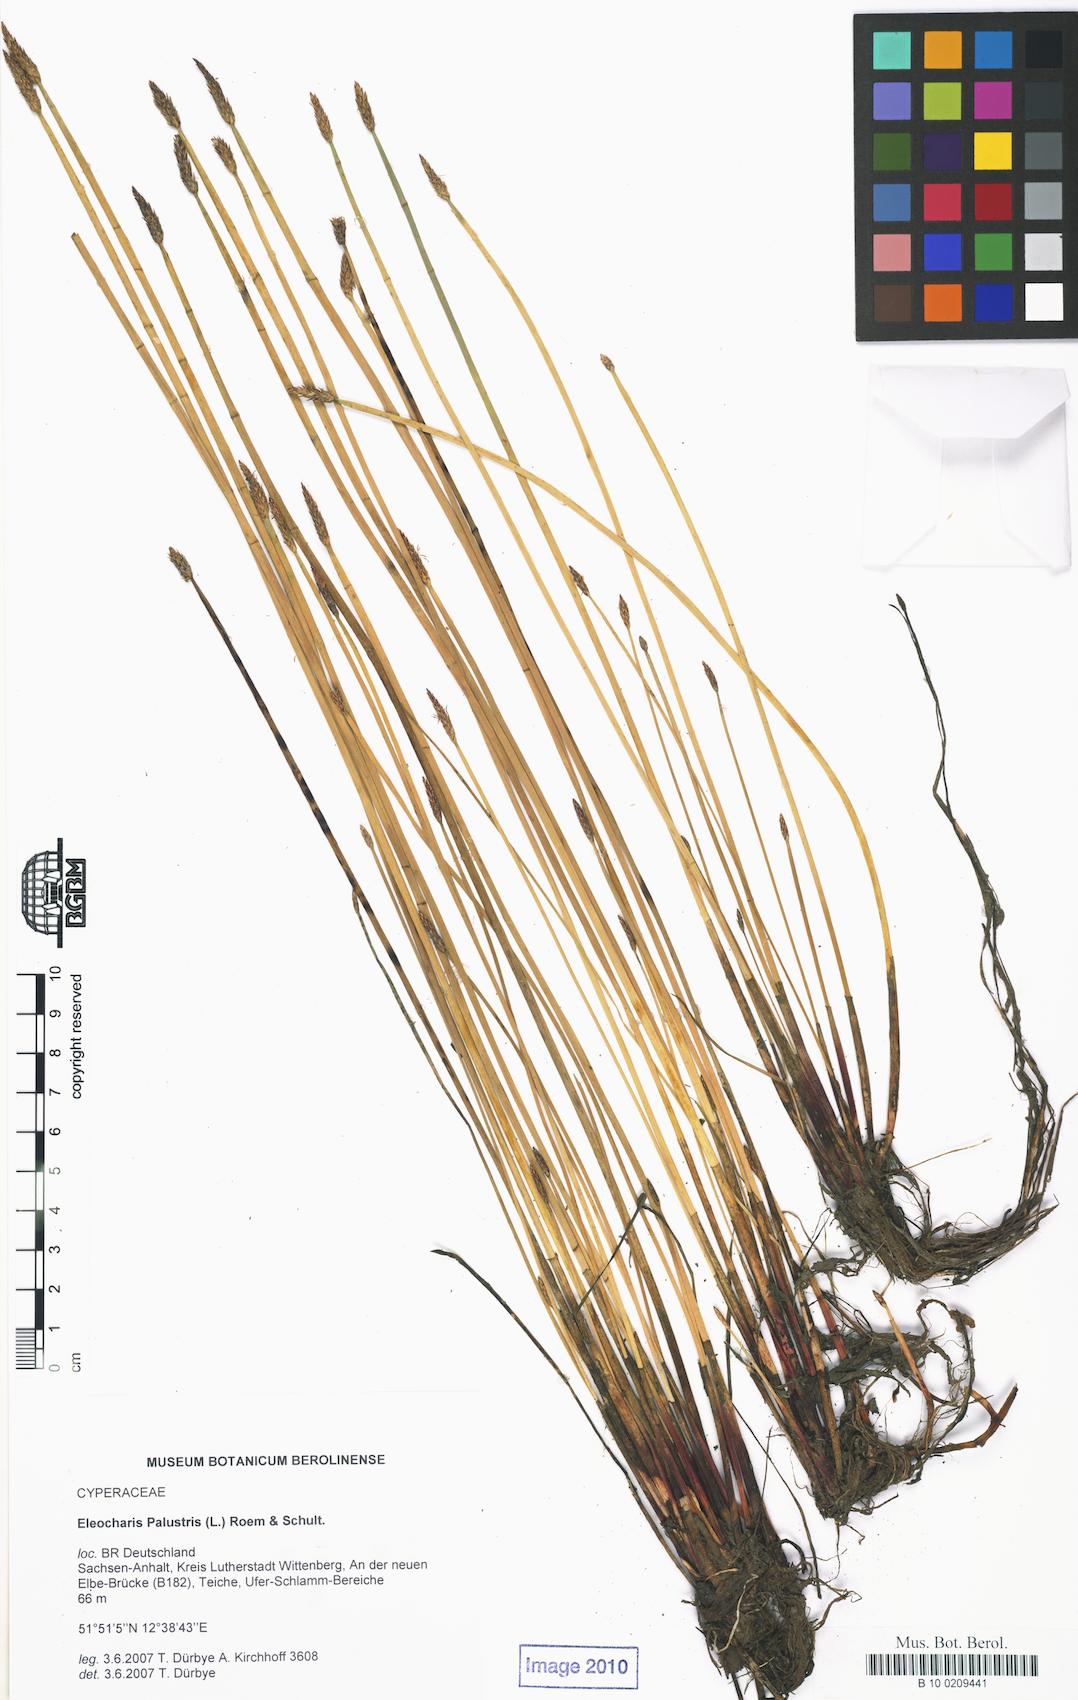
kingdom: Plantae
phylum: Tracheophyta
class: Liliopsida
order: Poales
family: Cyperaceae
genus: Eleocharis
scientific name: Eleocharis palustris
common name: Common spike-rush
